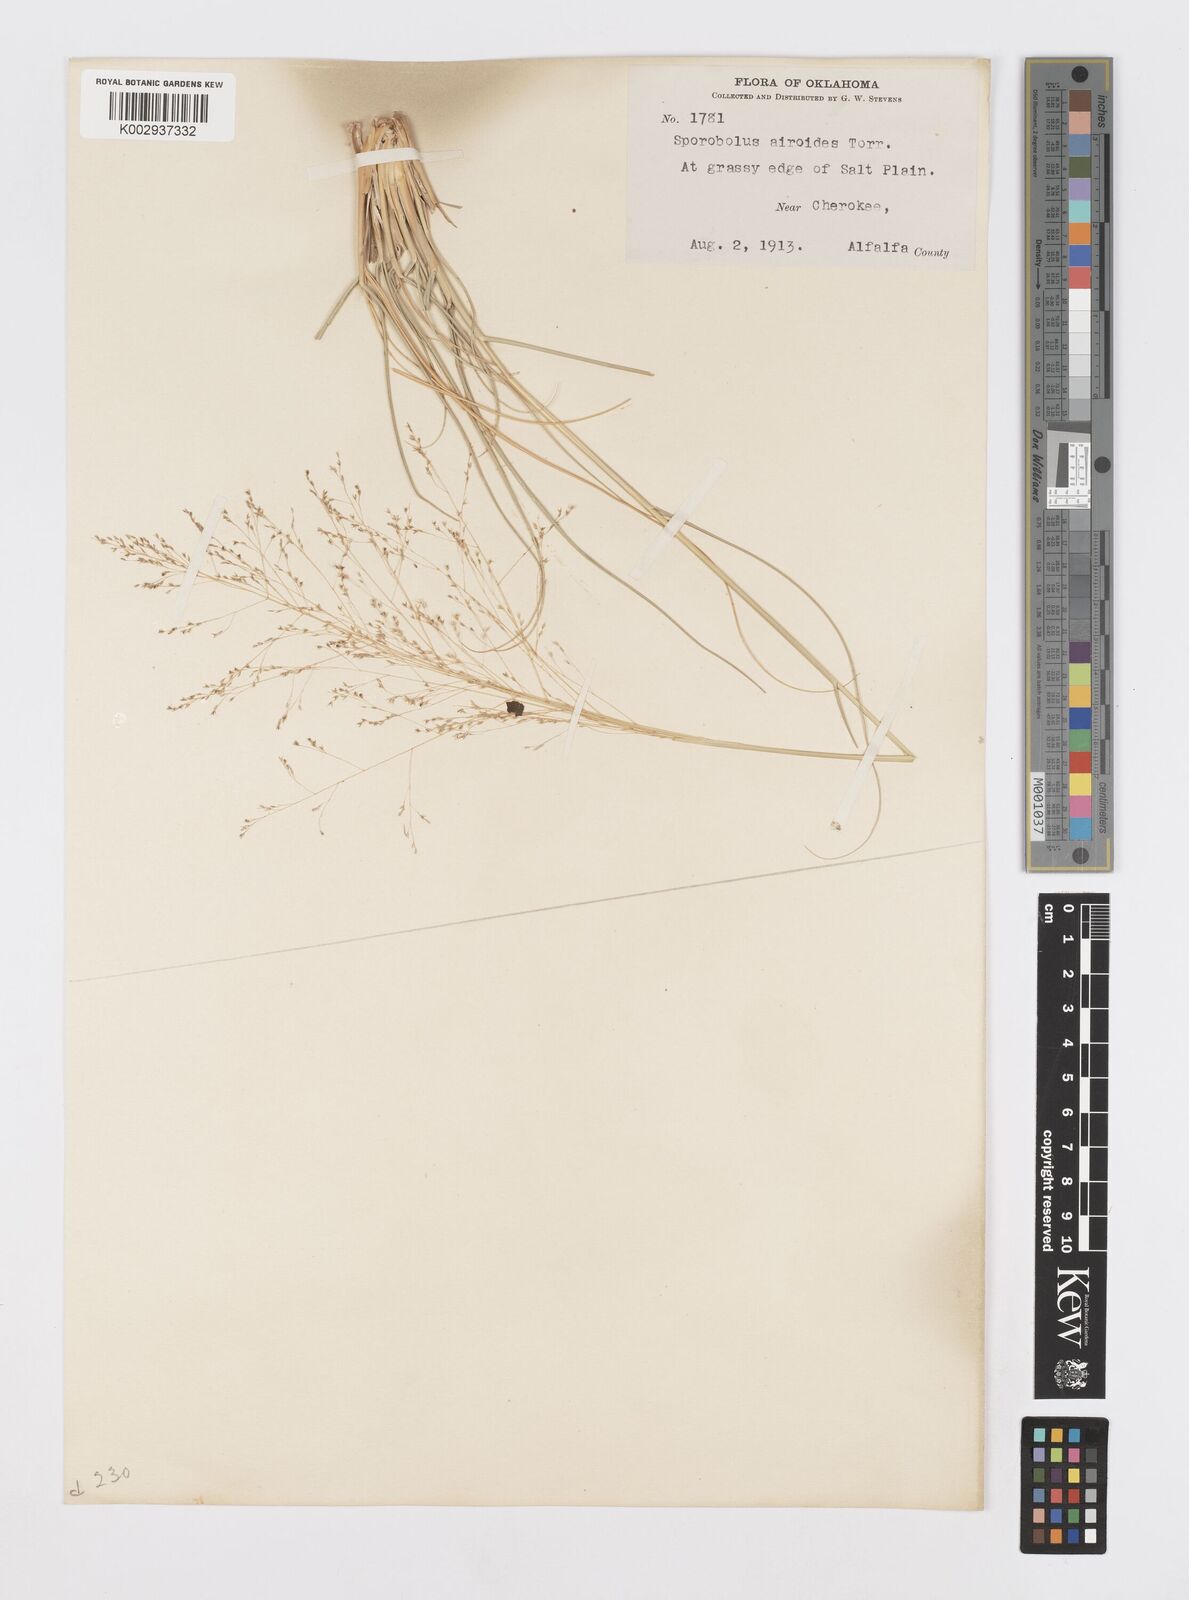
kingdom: Plantae
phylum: Tracheophyta
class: Liliopsida
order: Poales
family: Poaceae
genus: Sporobolus
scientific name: Sporobolus airoides
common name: Alkali sacaton
